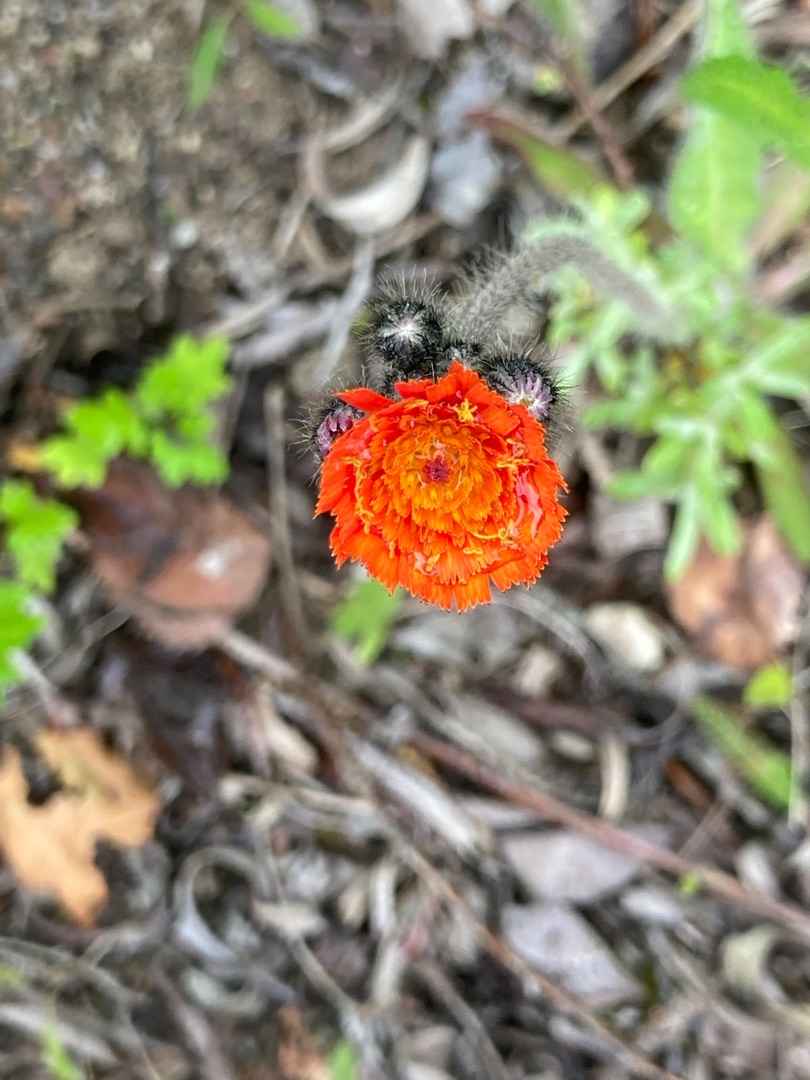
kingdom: Plantae
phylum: Tracheophyta
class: Magnoliopsida
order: Asterales
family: Asteraceae
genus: Pilosella
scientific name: Pilosella aurantiaca
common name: Pomerans-høgeurt
